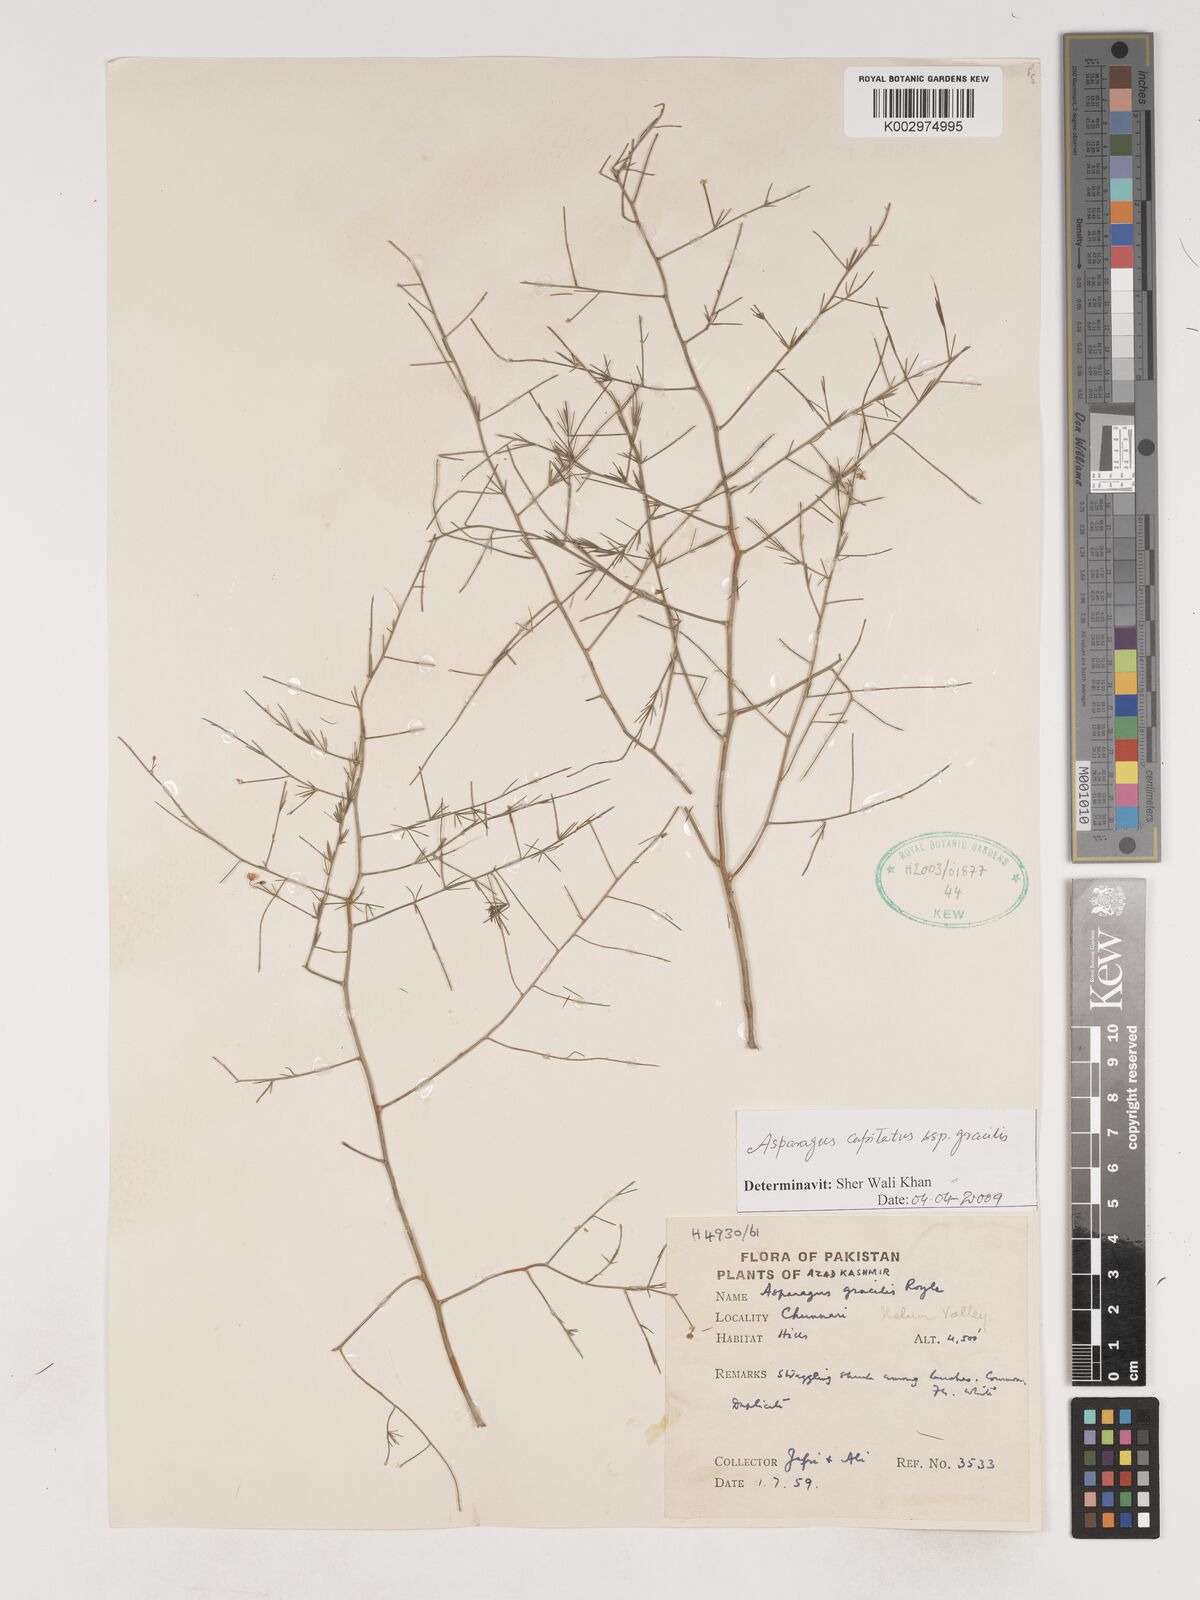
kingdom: Plantae
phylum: Tracheophyta
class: Liliopsida
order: Asparagales
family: Asparagaceae
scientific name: Asparagaceae
